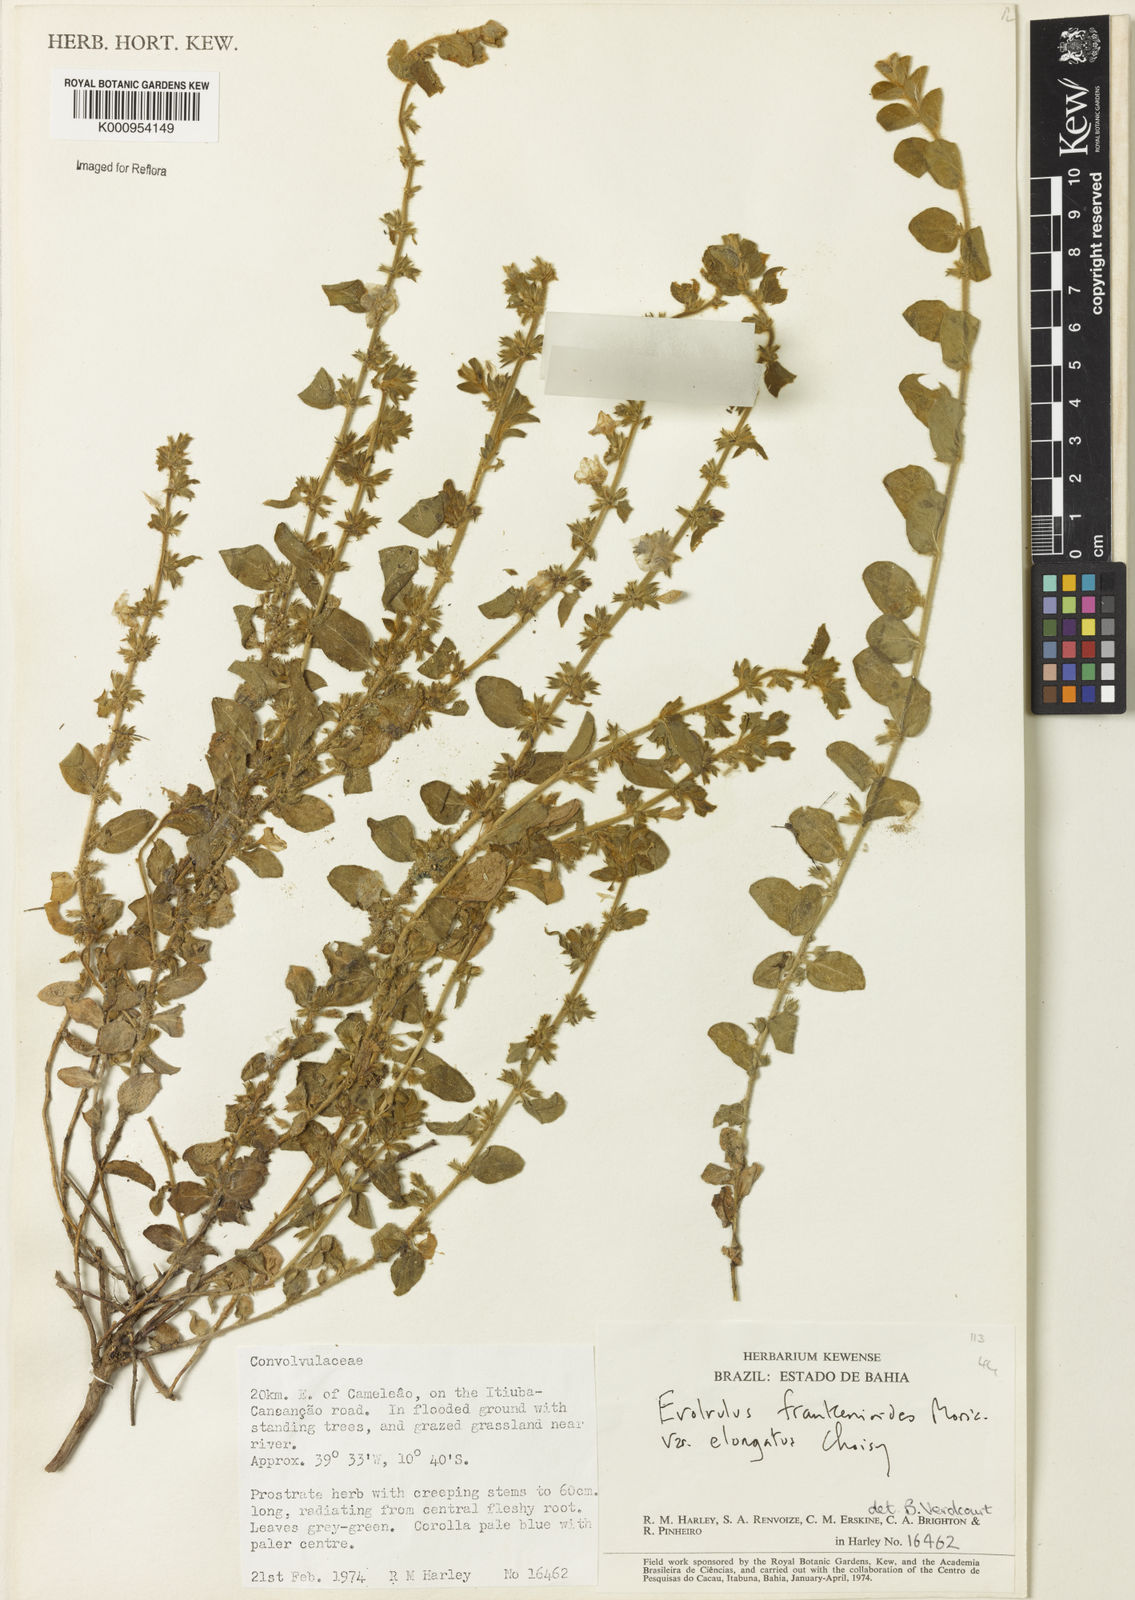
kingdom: Plantae
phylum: Tracheophyta
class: Magnoliopsida
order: Solanales
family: Convolvulaceae
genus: Evolvulus
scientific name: Evolvulus frankenioides
